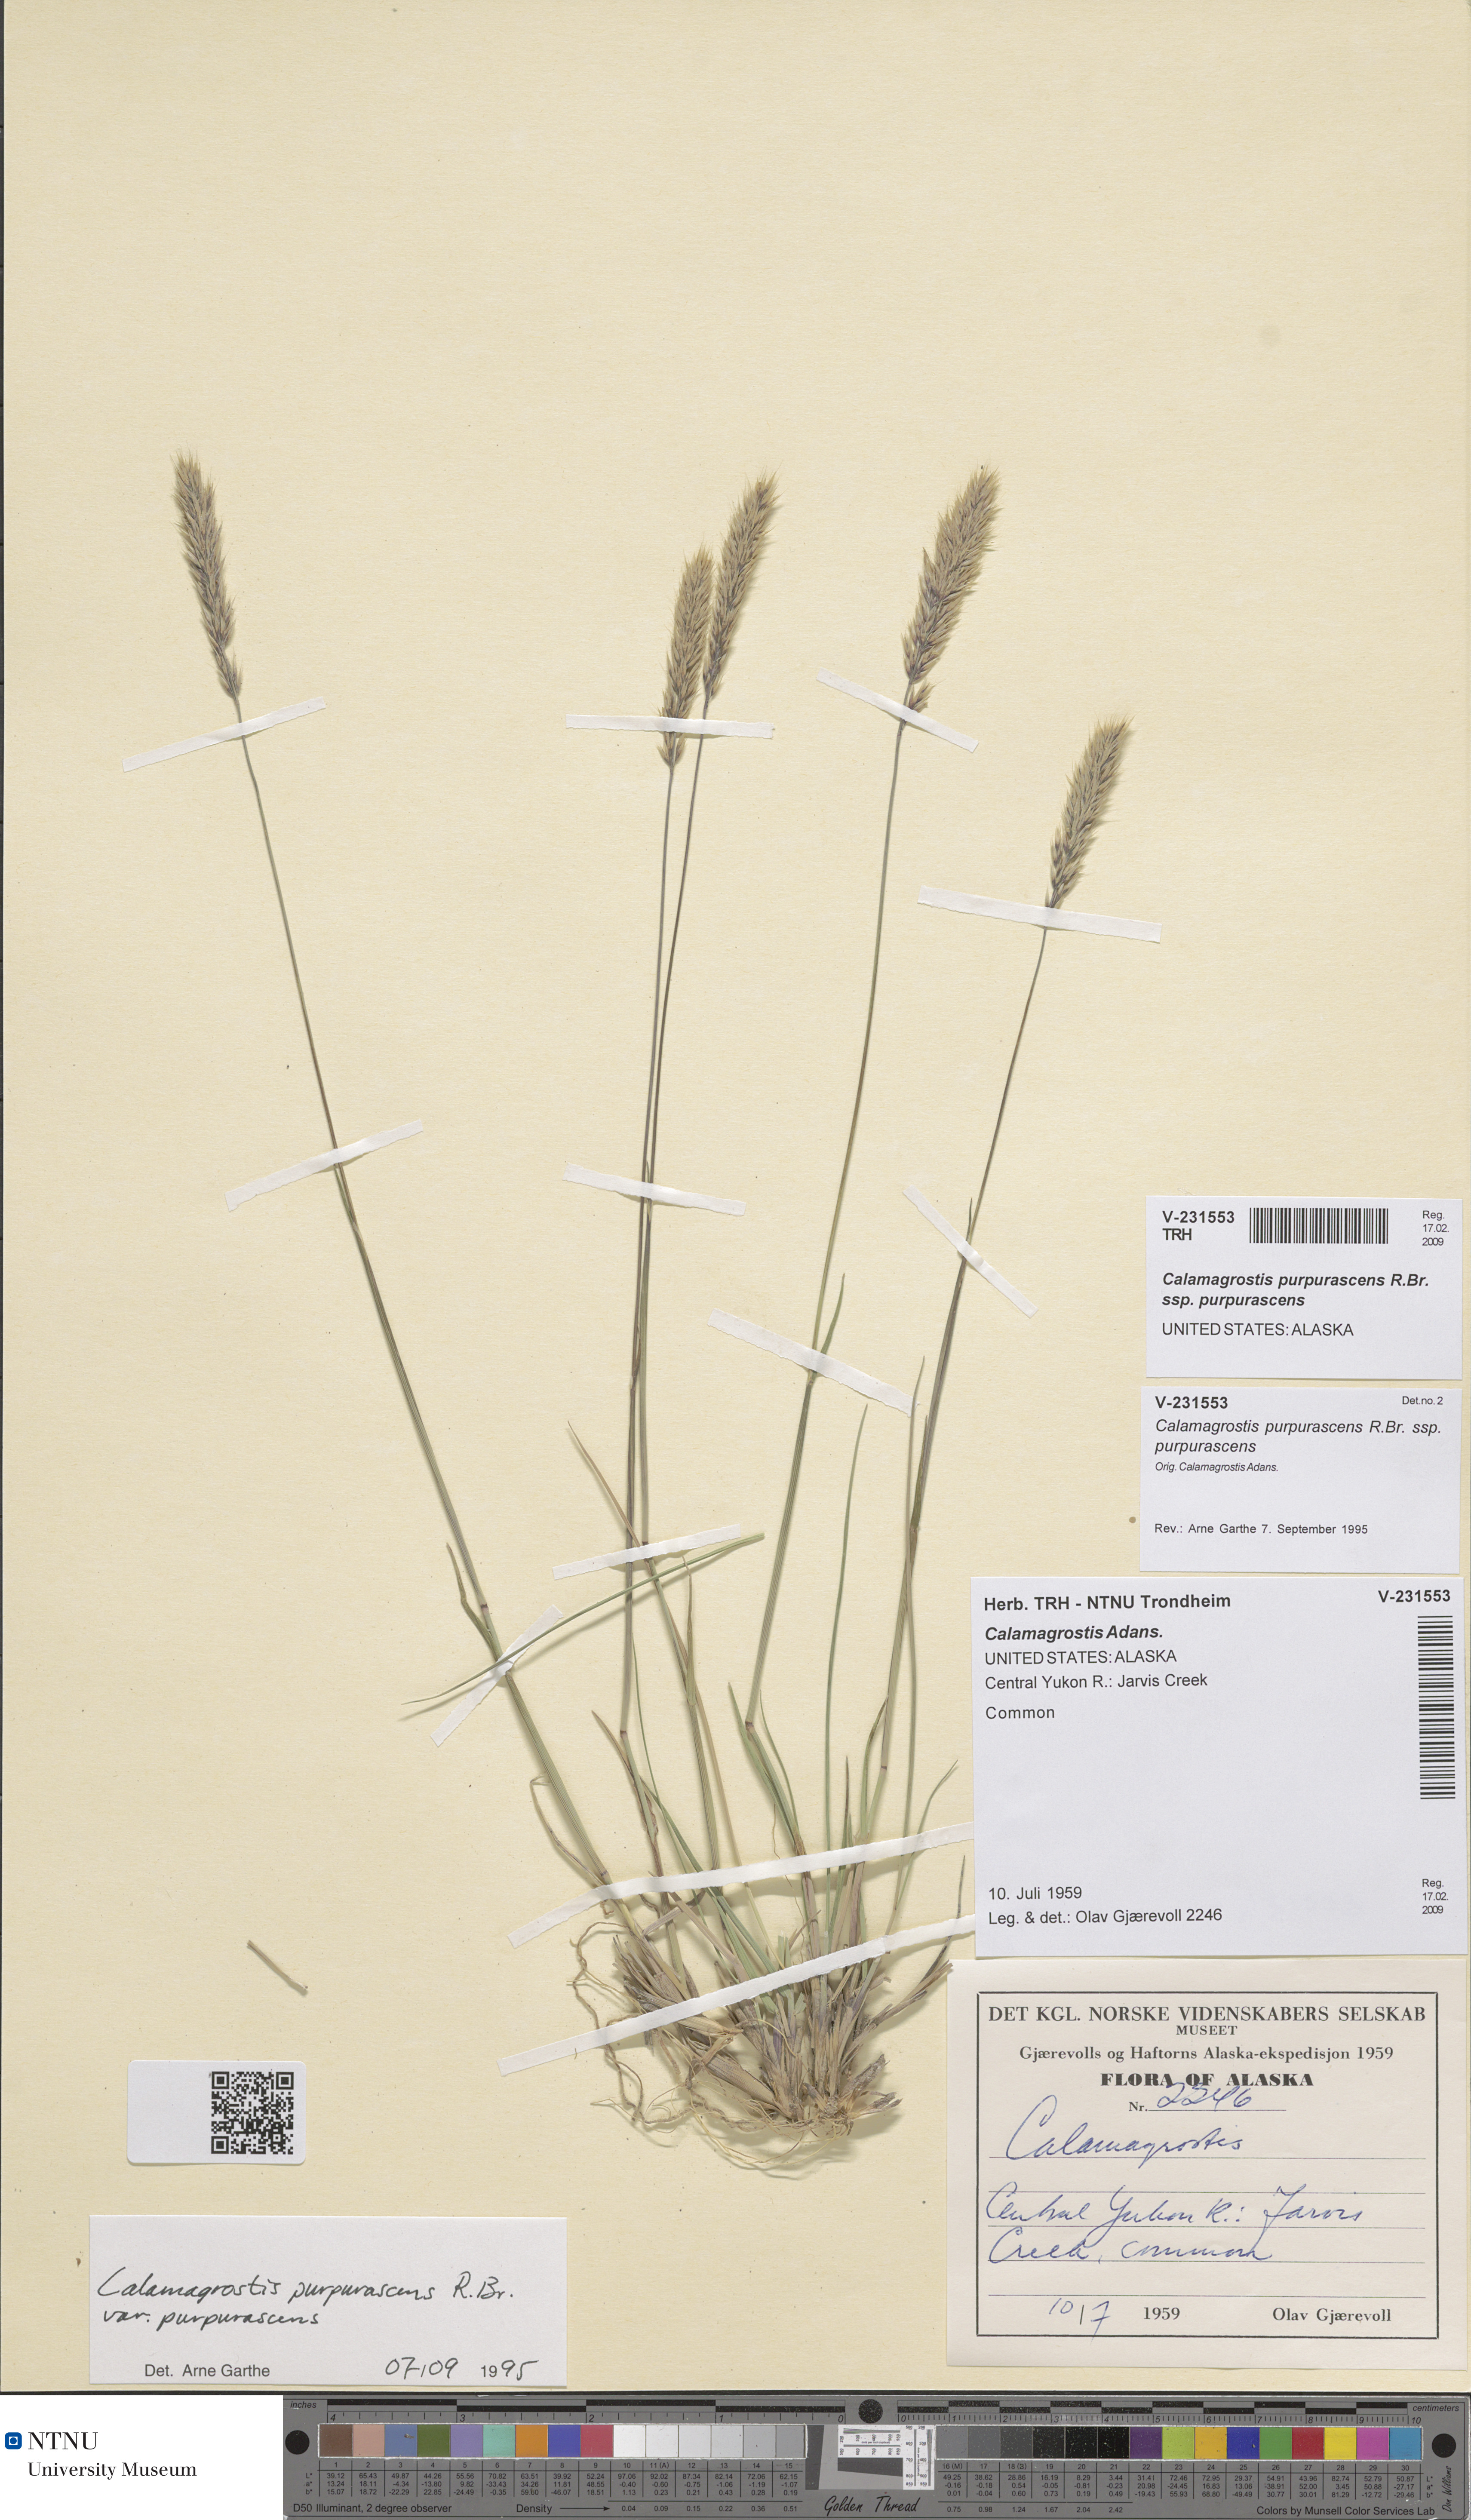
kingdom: Plantae
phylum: Tracheophyta
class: Liliopsida
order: Poales
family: Poaceae
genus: Calamagrostis
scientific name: Calamagrostis purpurascens
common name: Purple reedgrass
